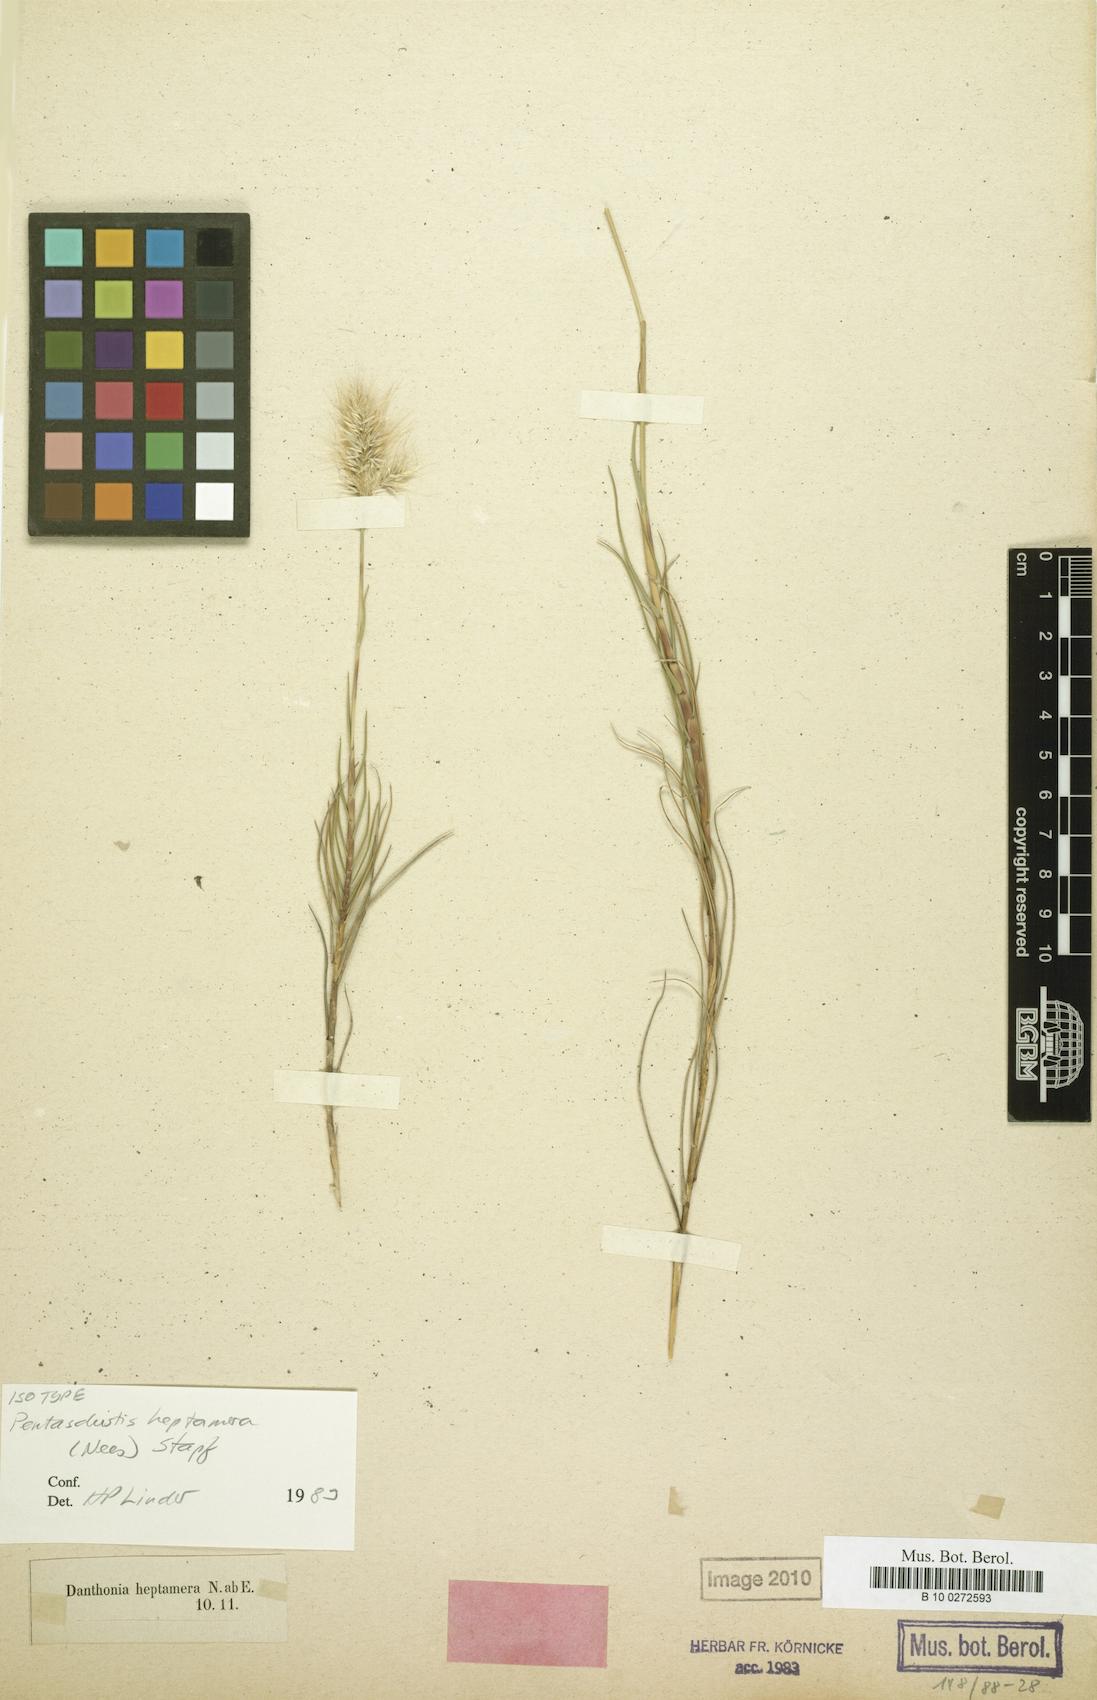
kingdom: Plantae
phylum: Tracheophyta
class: Liliopsida
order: Poales
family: Poaceae
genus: Pentameris
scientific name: Pentameris heptamera
